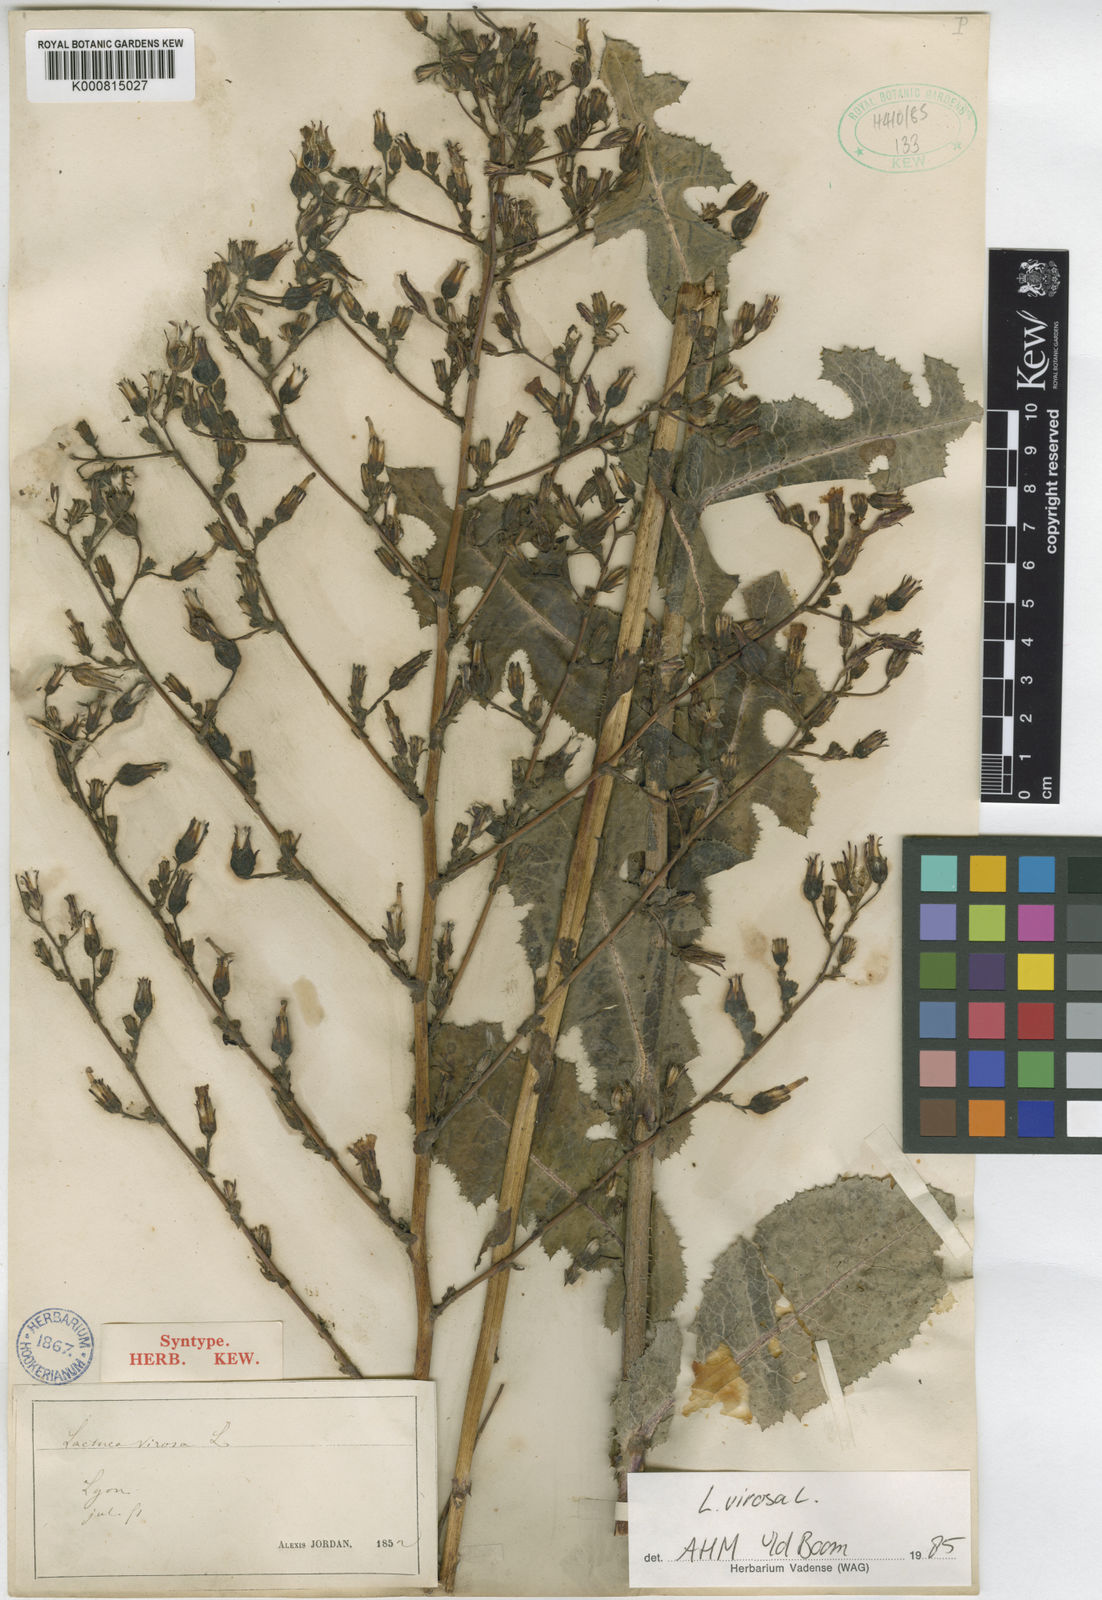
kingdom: Plantae
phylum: Tracheophyta
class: Magnoliopsida
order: Asterales
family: Asteraceae
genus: Lactuca
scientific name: Lactuca virosa
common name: Great lettuce
